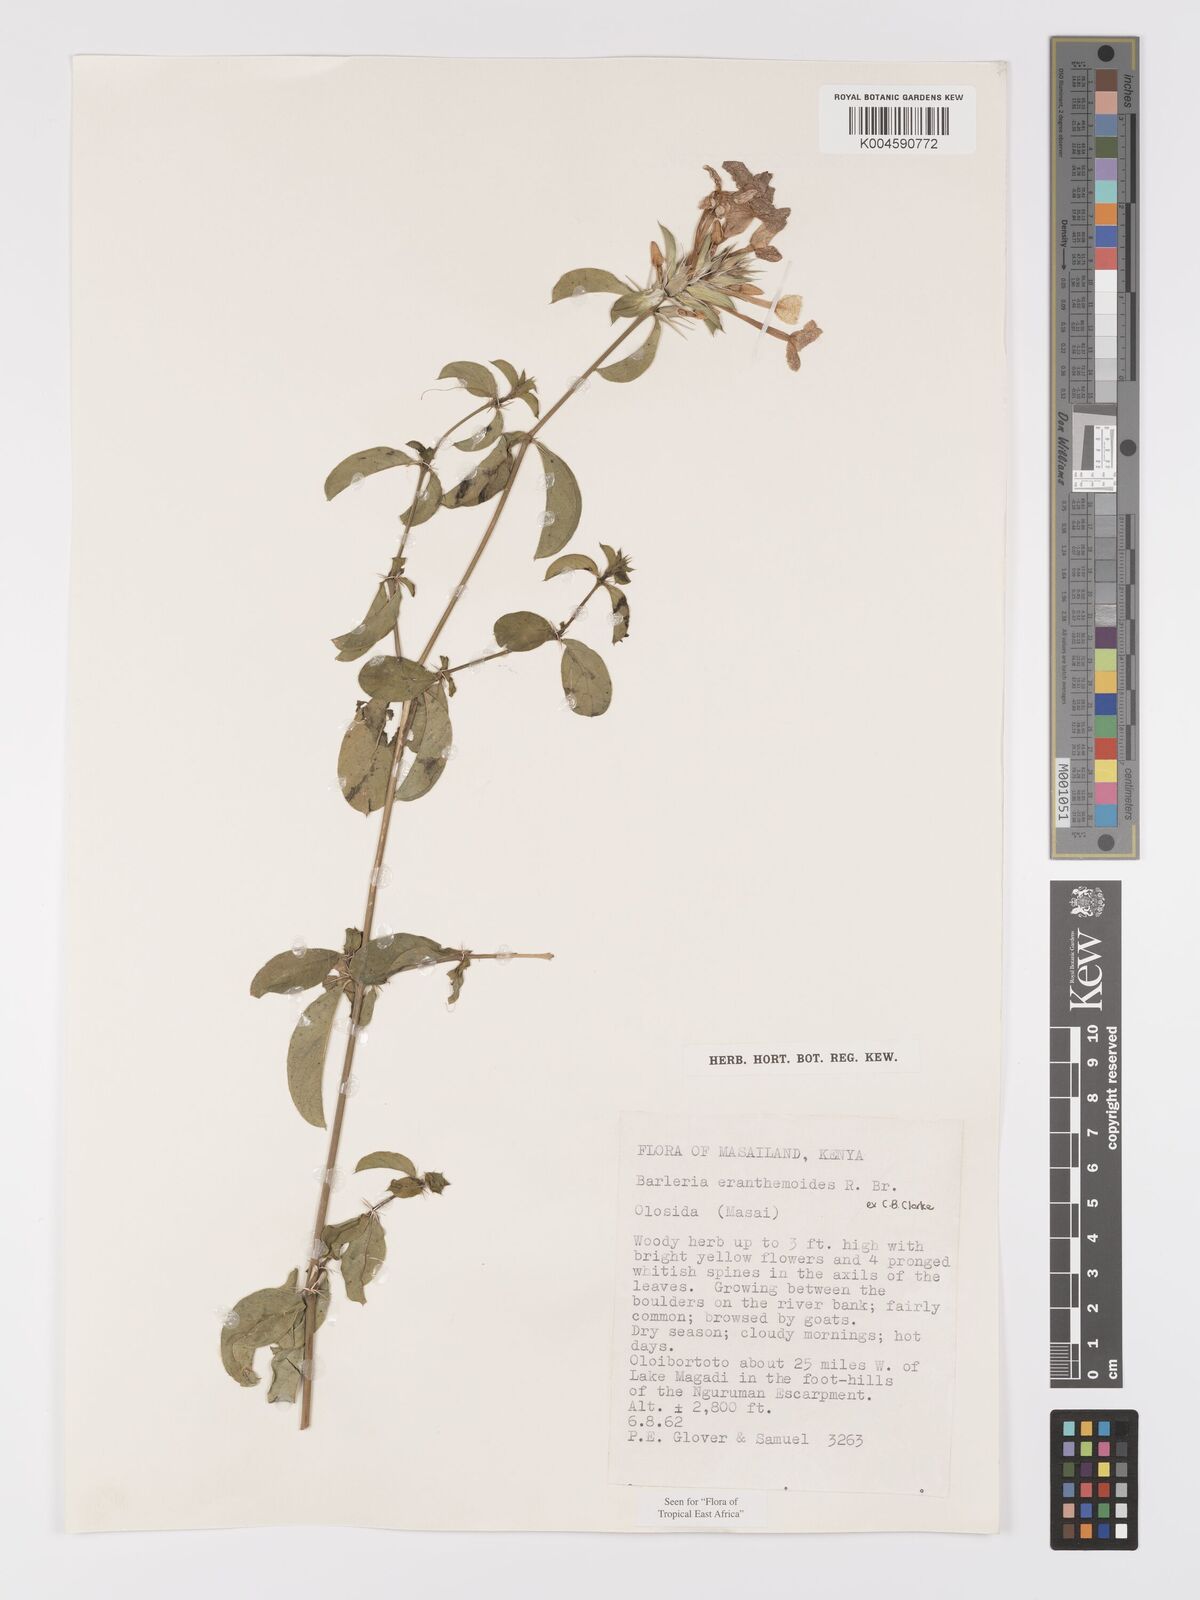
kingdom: Plantae
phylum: Tracheophyta
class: Magnoliopsida
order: Lamiales
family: Acanthaceae
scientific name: Acanthaceae
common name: Acanthaceae
